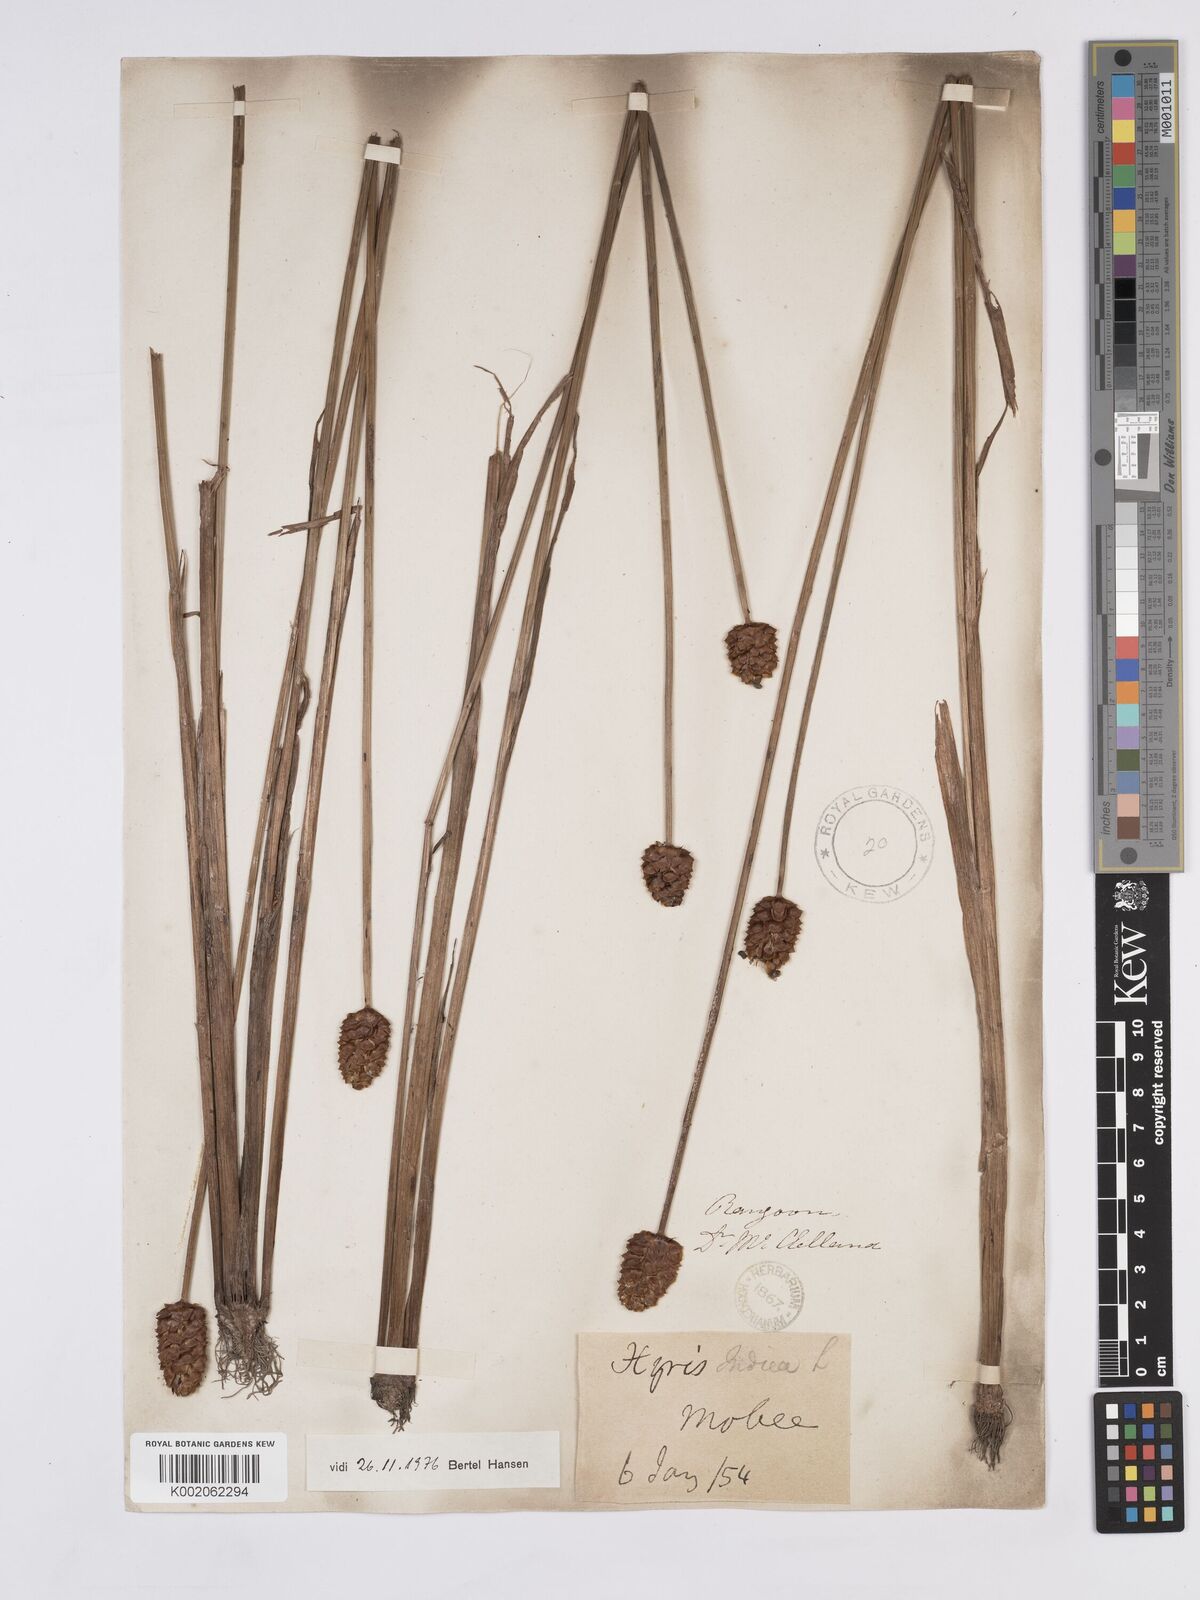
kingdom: Plantae
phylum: Tracheophyta
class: Liliopsida
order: Poales
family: Xyridaceae
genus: Xyris
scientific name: Xyris indica
